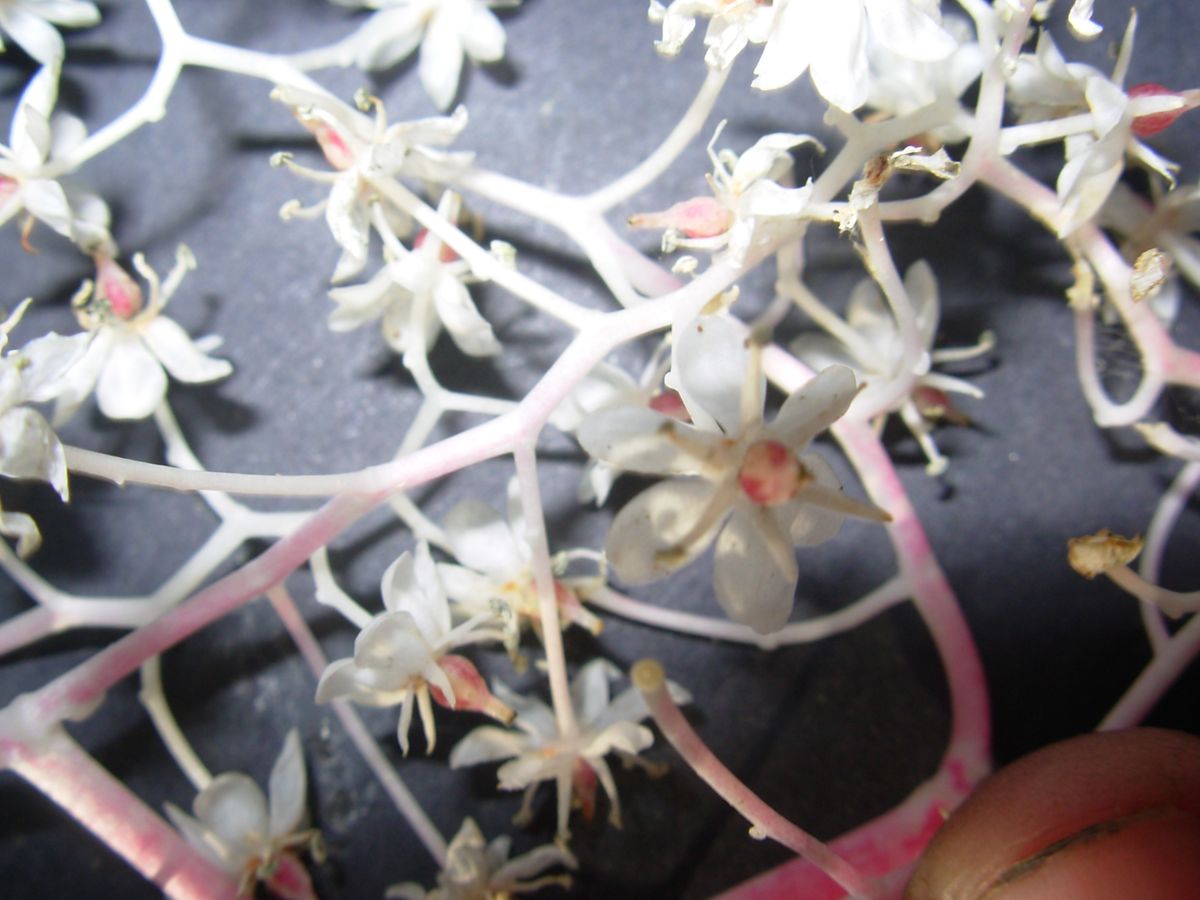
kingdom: Plantae
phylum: Tracheophyta
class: Liliopsida
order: Asparagales
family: Asparagaceae
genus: Maianthemum
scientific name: Maianthemum paniculatum
